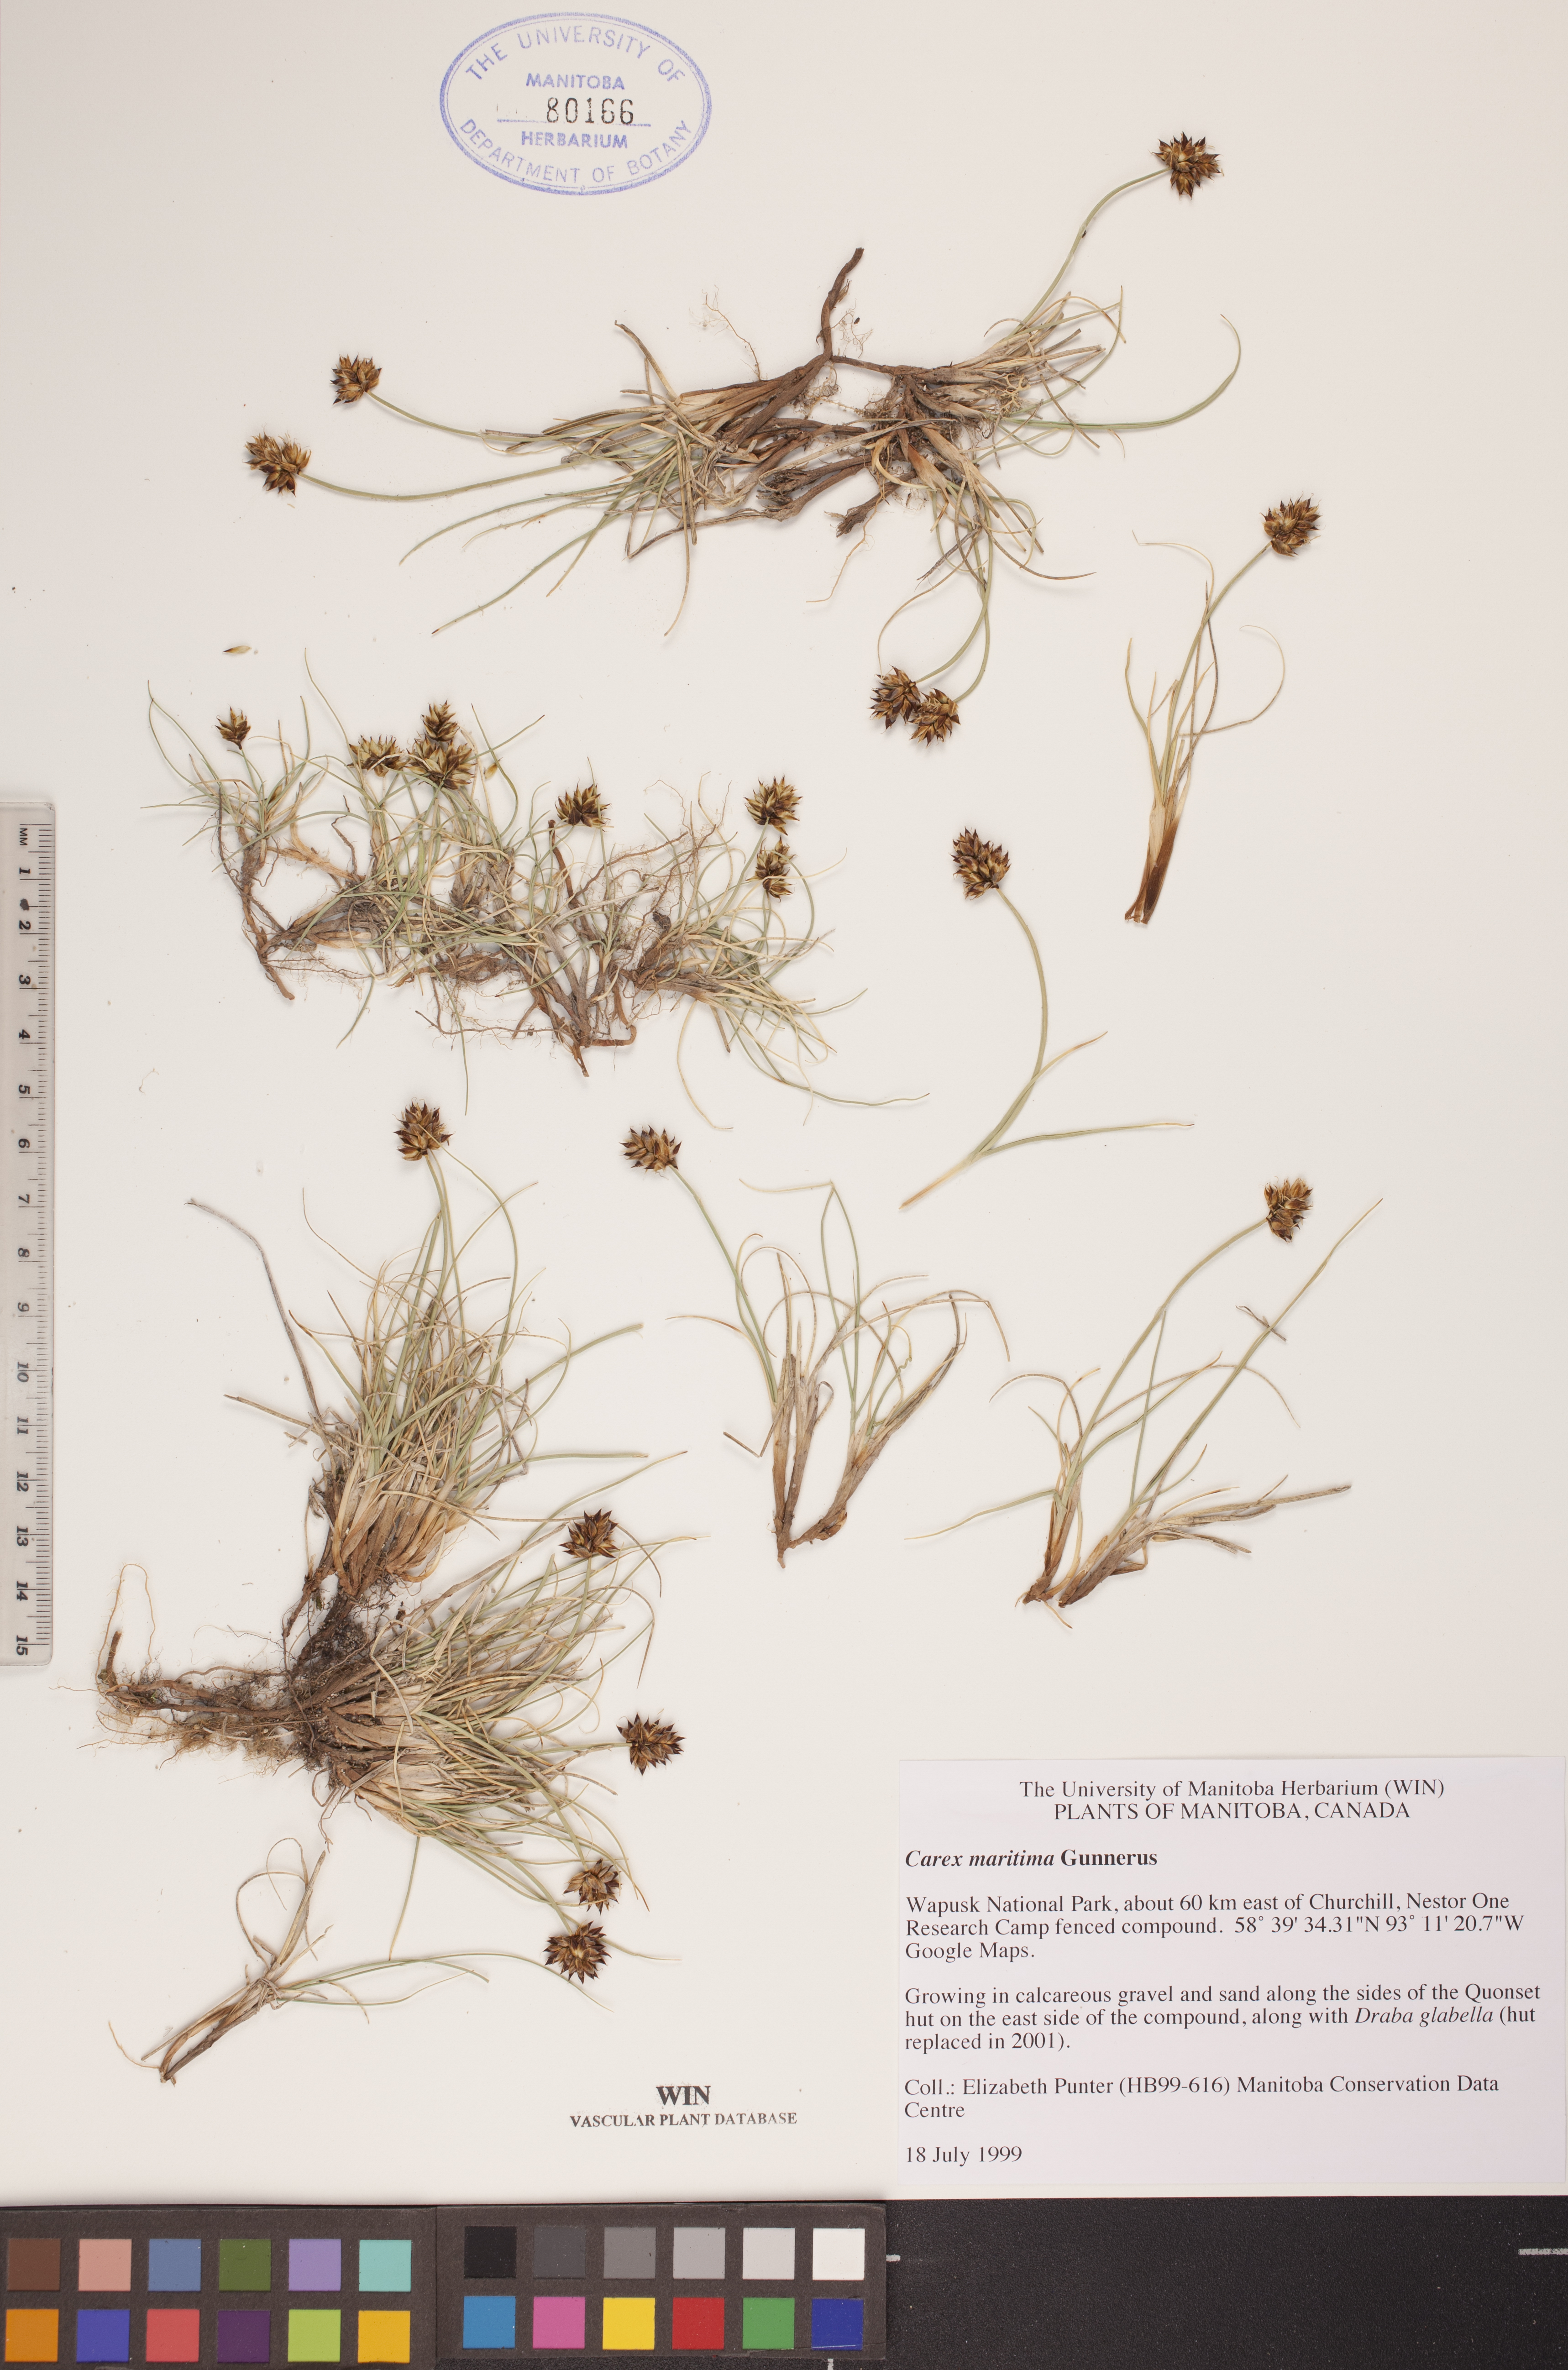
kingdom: Plantae
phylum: Tracheophyta
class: Liliopsida
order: Poales
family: Cyperaceae
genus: Carex
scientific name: Carex maritima
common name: Curved sedge
